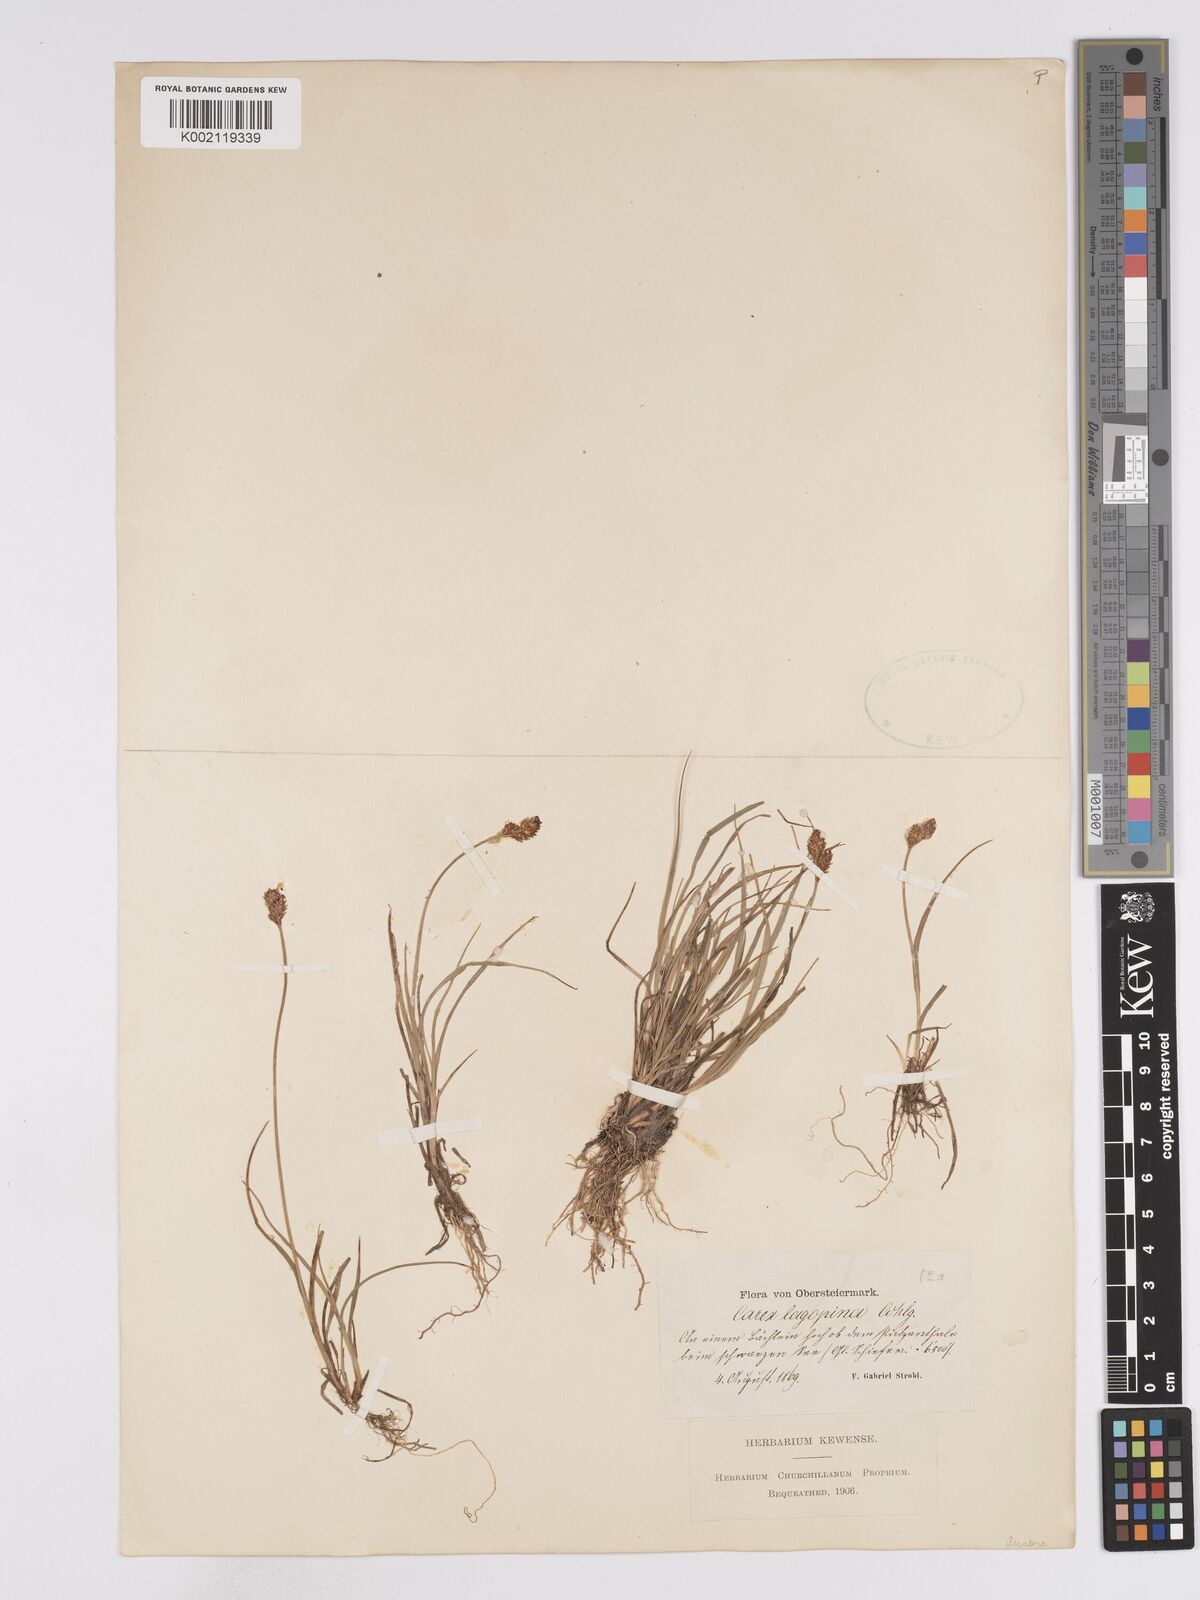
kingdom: Plantae
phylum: Tracheophyta
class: Liliopsida
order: Poales
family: Cyperaceae
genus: Carex
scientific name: Carex lachenalii
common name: Hare's-foot sedge
